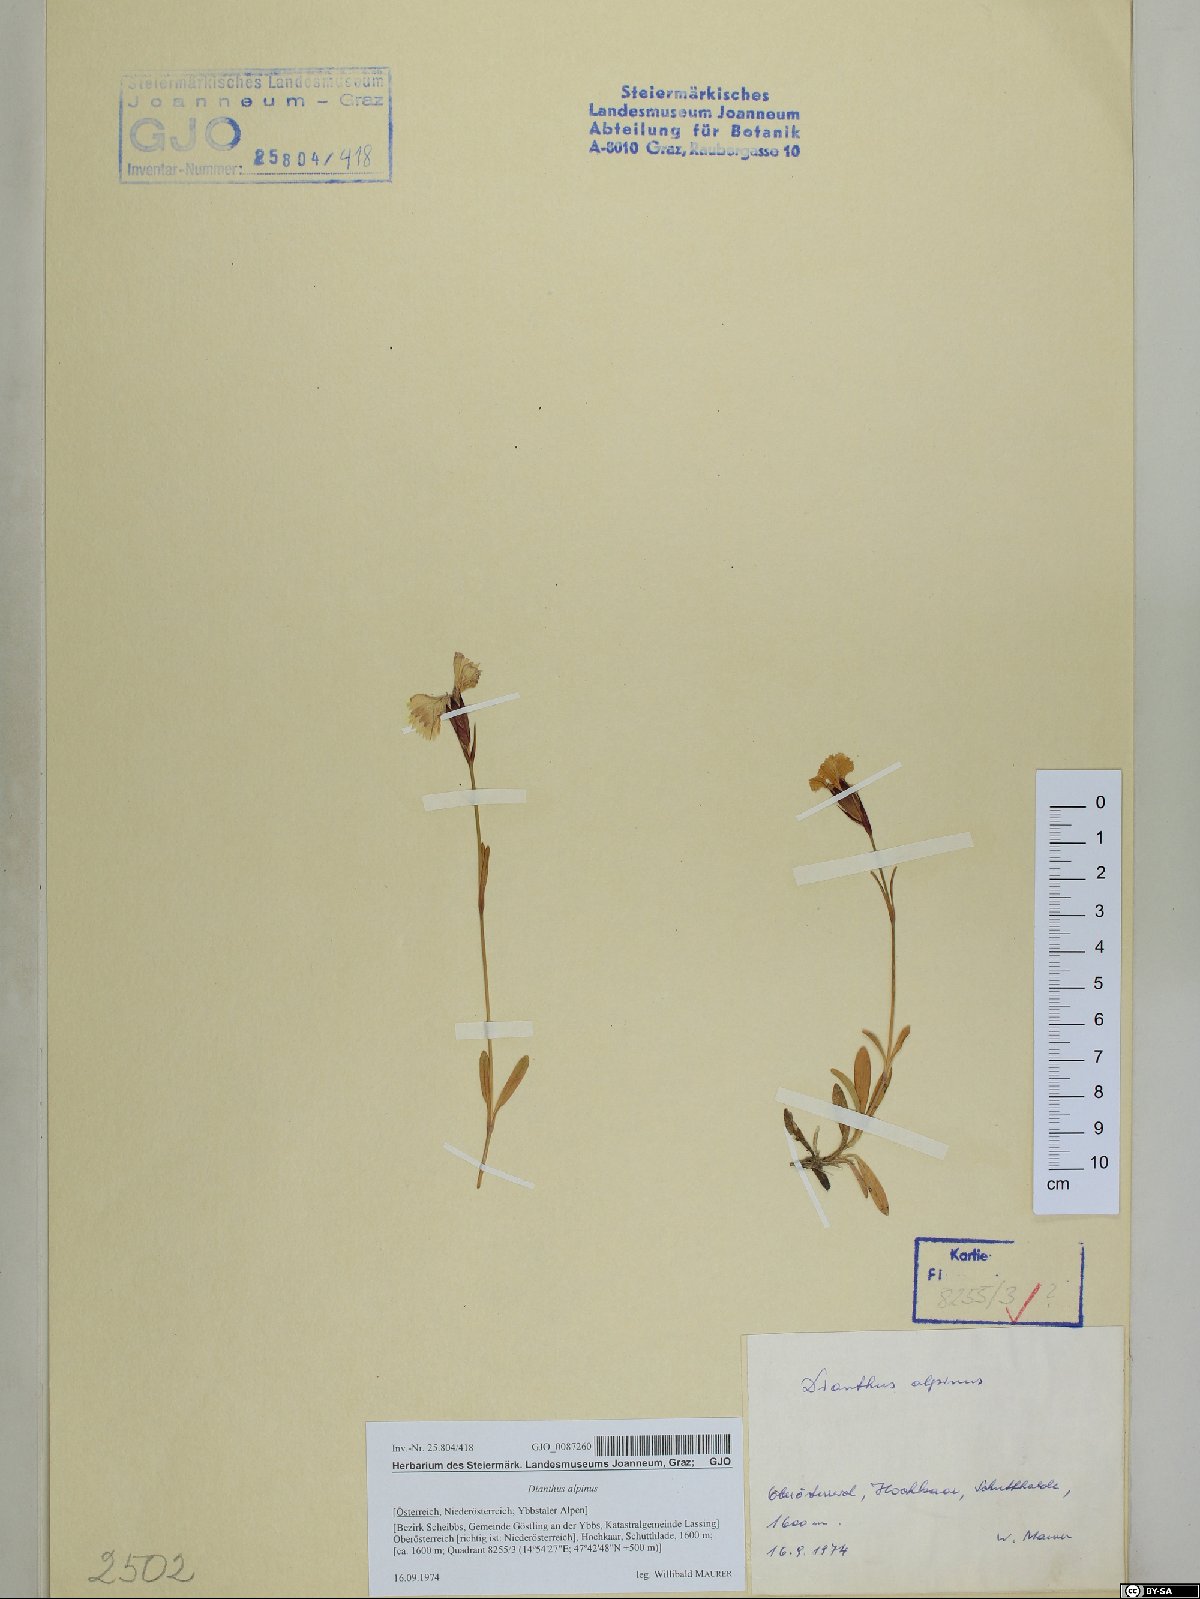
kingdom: Plantae
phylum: Tracheophyta
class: Magnoliopsida
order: Caryophyllales
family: Caryophyllaceae
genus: Dianthus
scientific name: Dianthus alpinus
